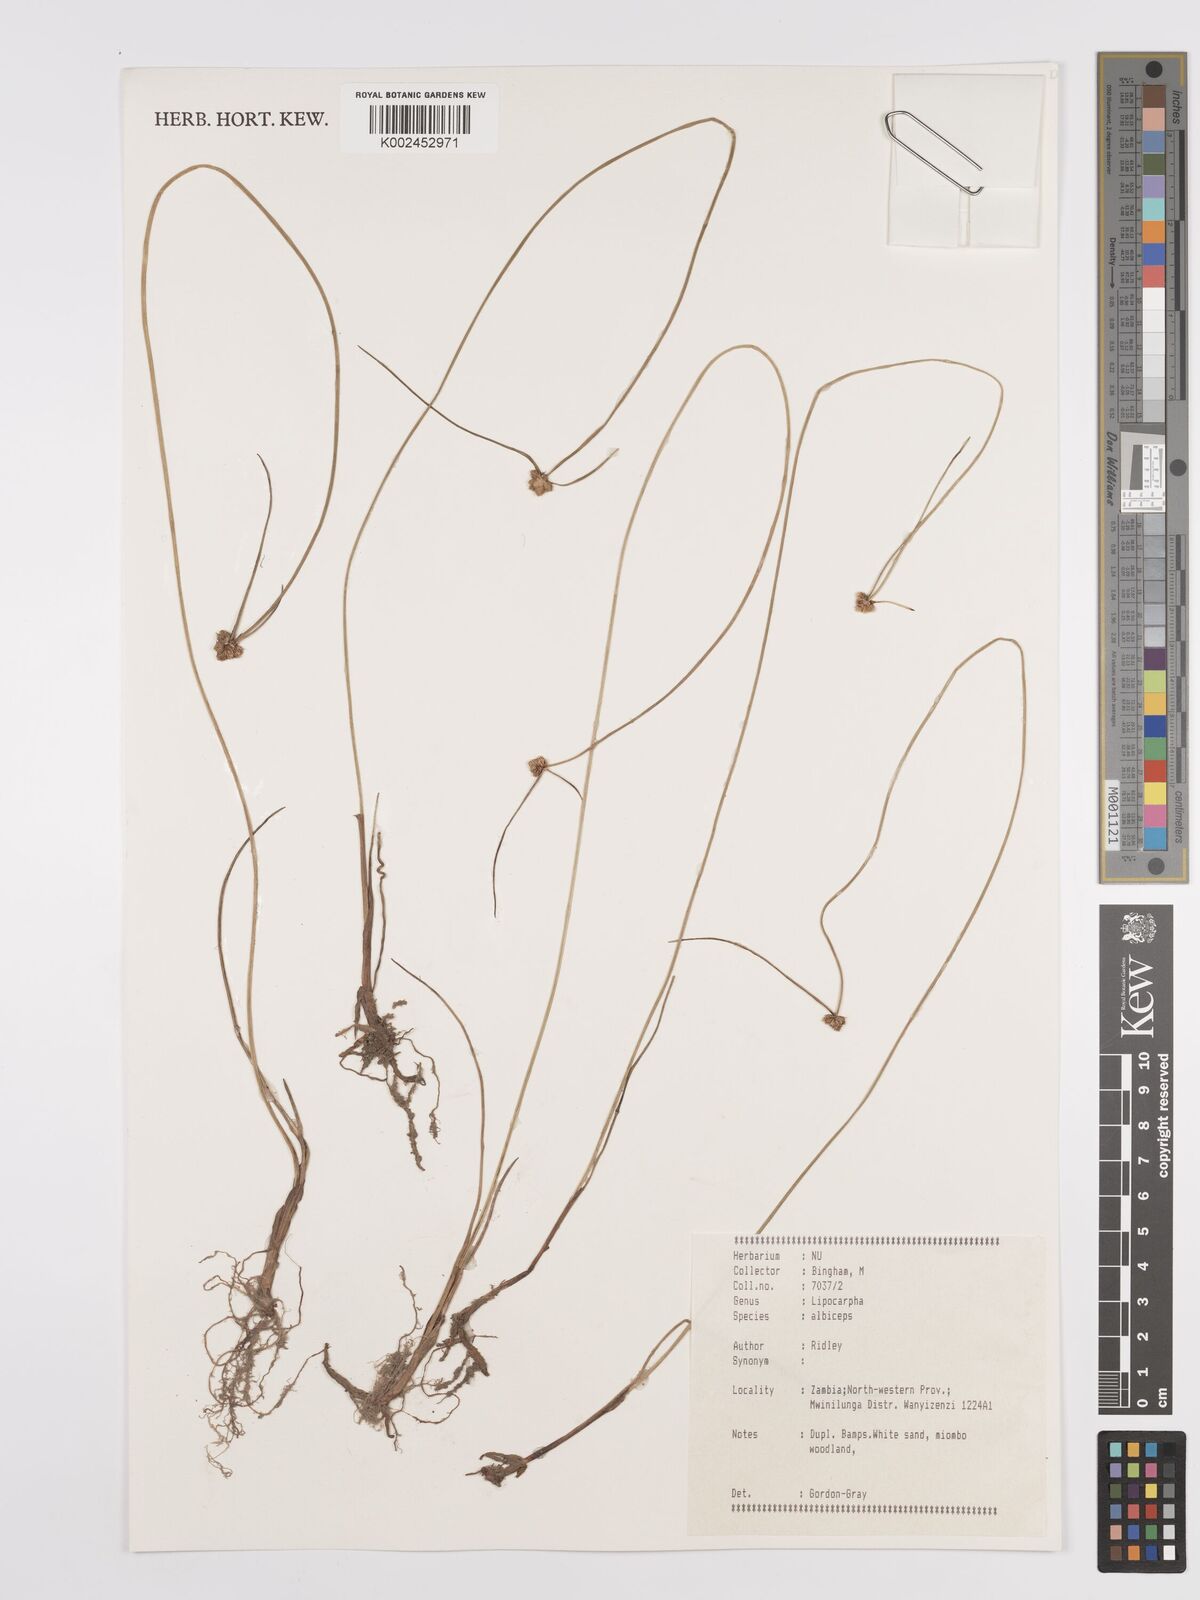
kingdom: Plantae
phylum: Tracheophyta
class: Liliopsida
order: Poales
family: Cyperaceae
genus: Cyperus
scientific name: Cyperus albiceps
